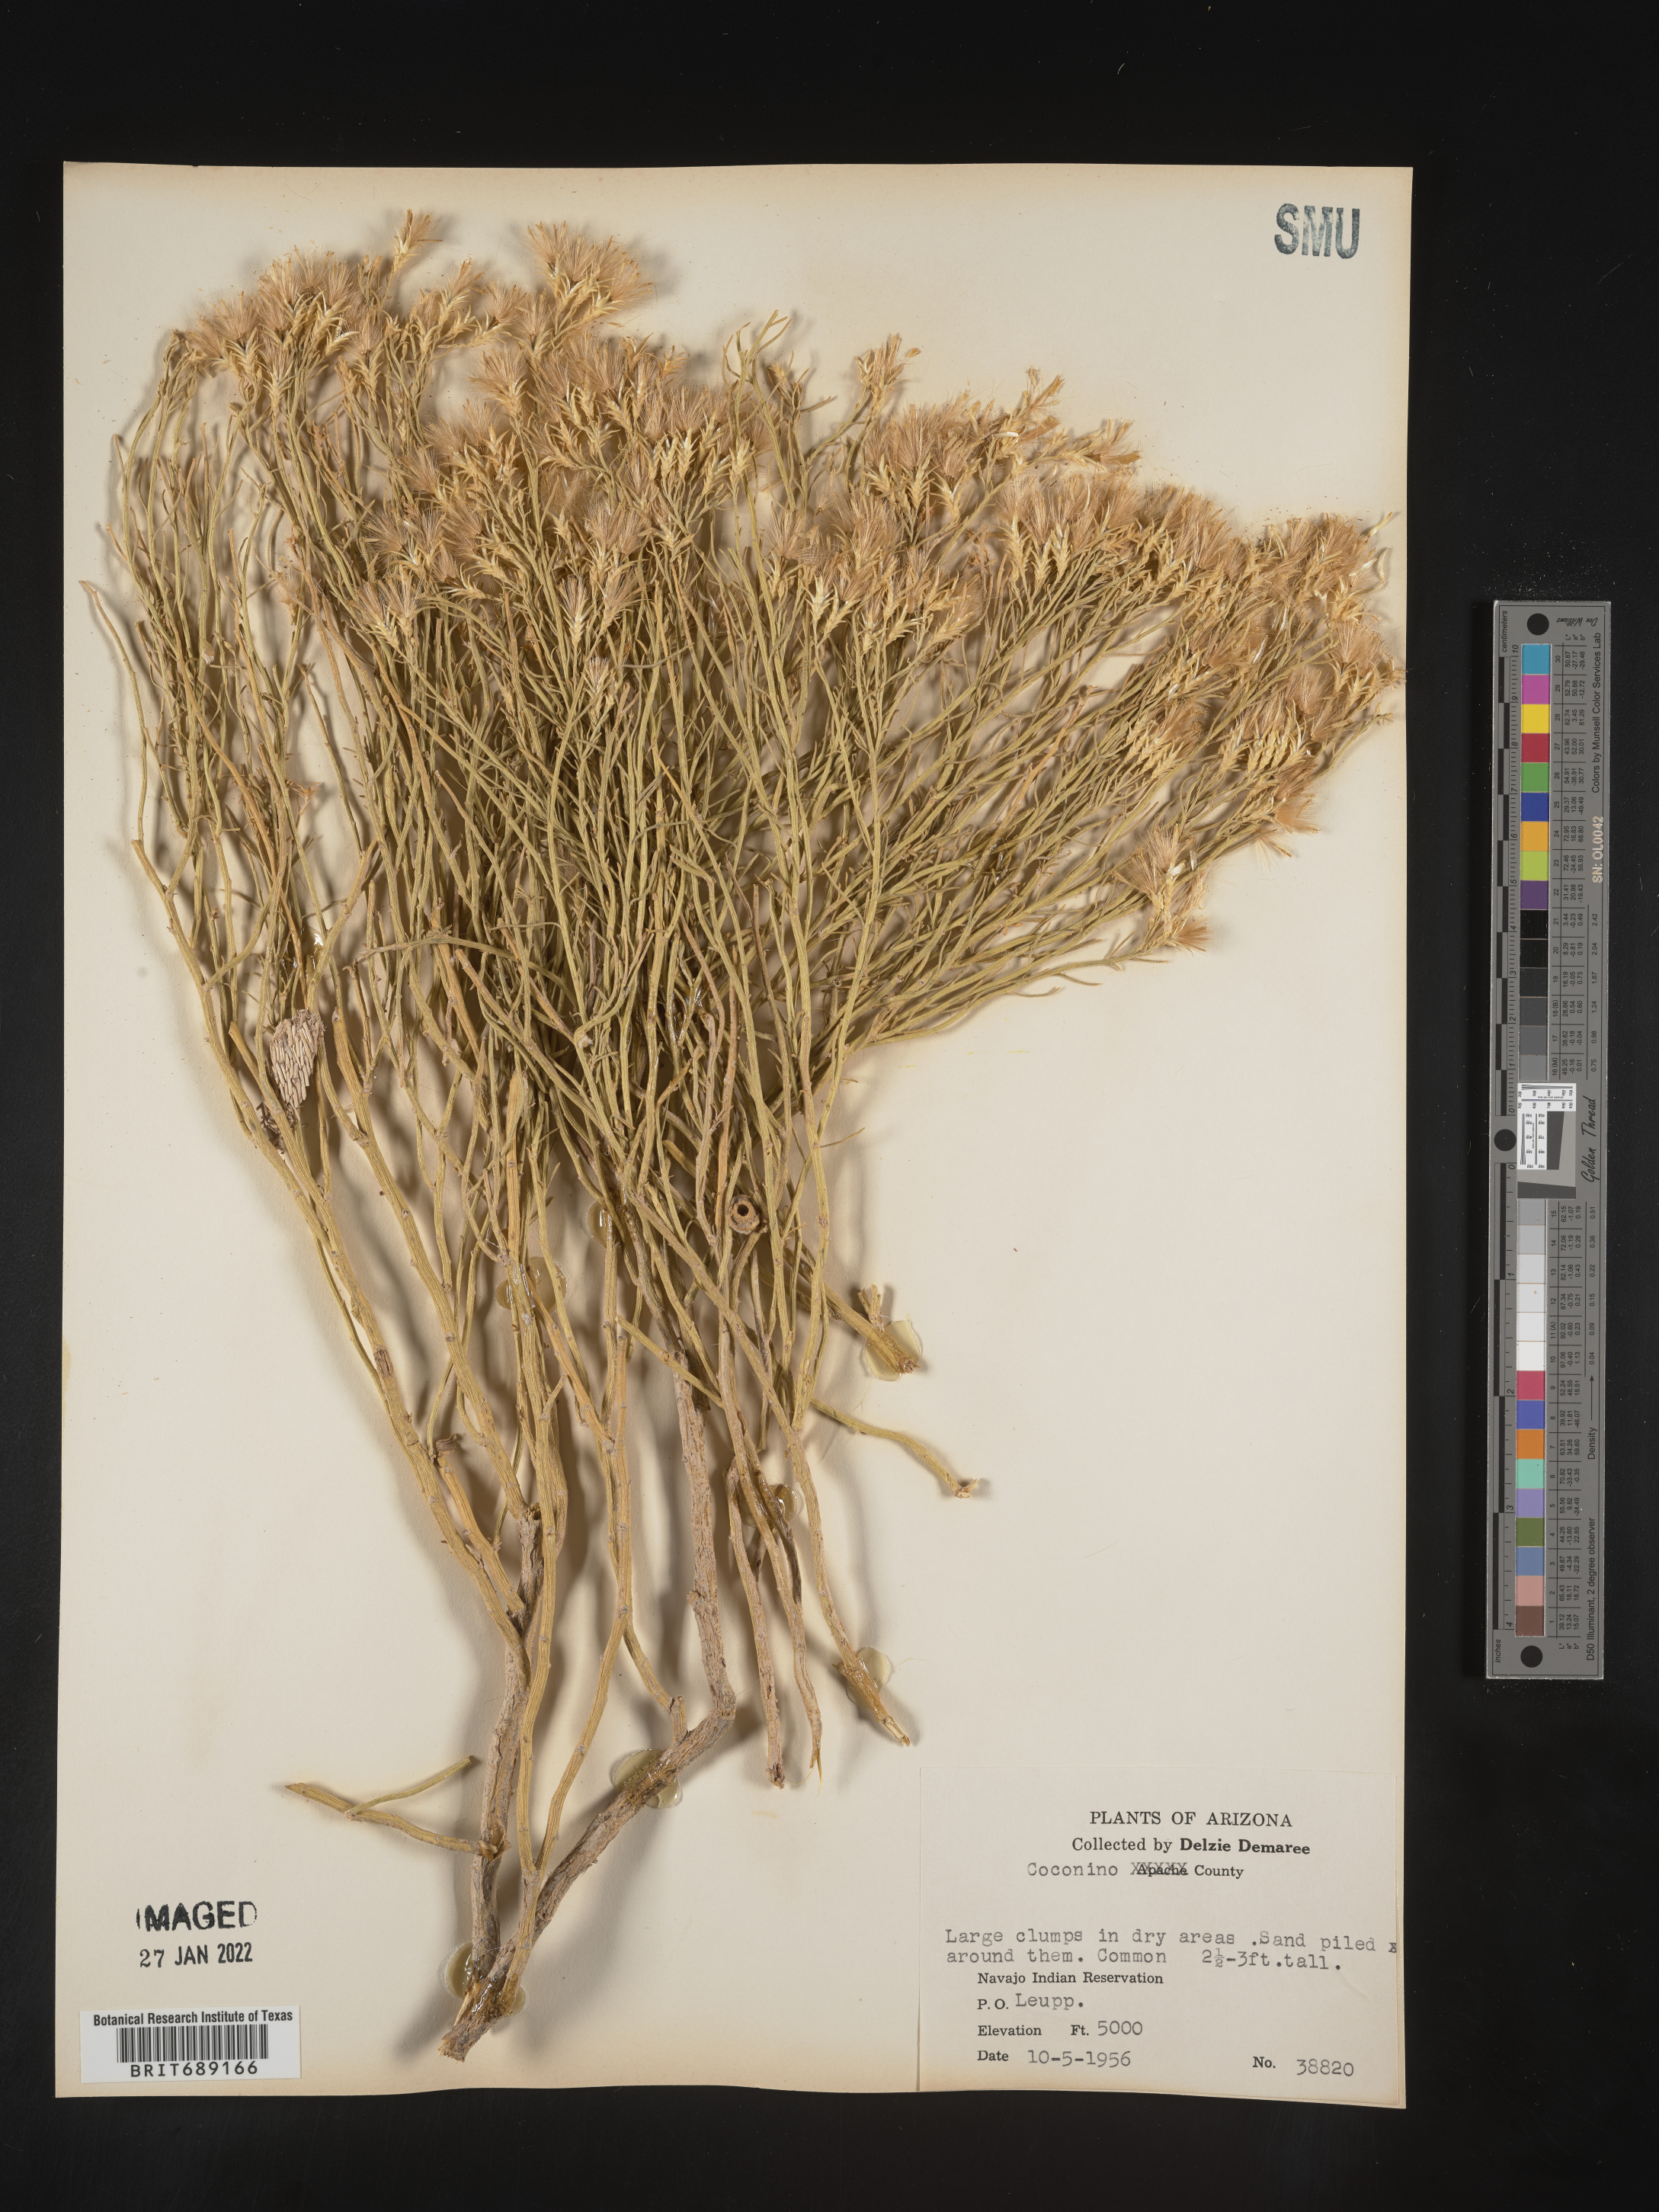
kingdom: Plantae
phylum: Tracheophyta
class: Magnoliopsida
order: Asterales
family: Asteraceae
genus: Chrysothamnus
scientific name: Chrysothamnus
